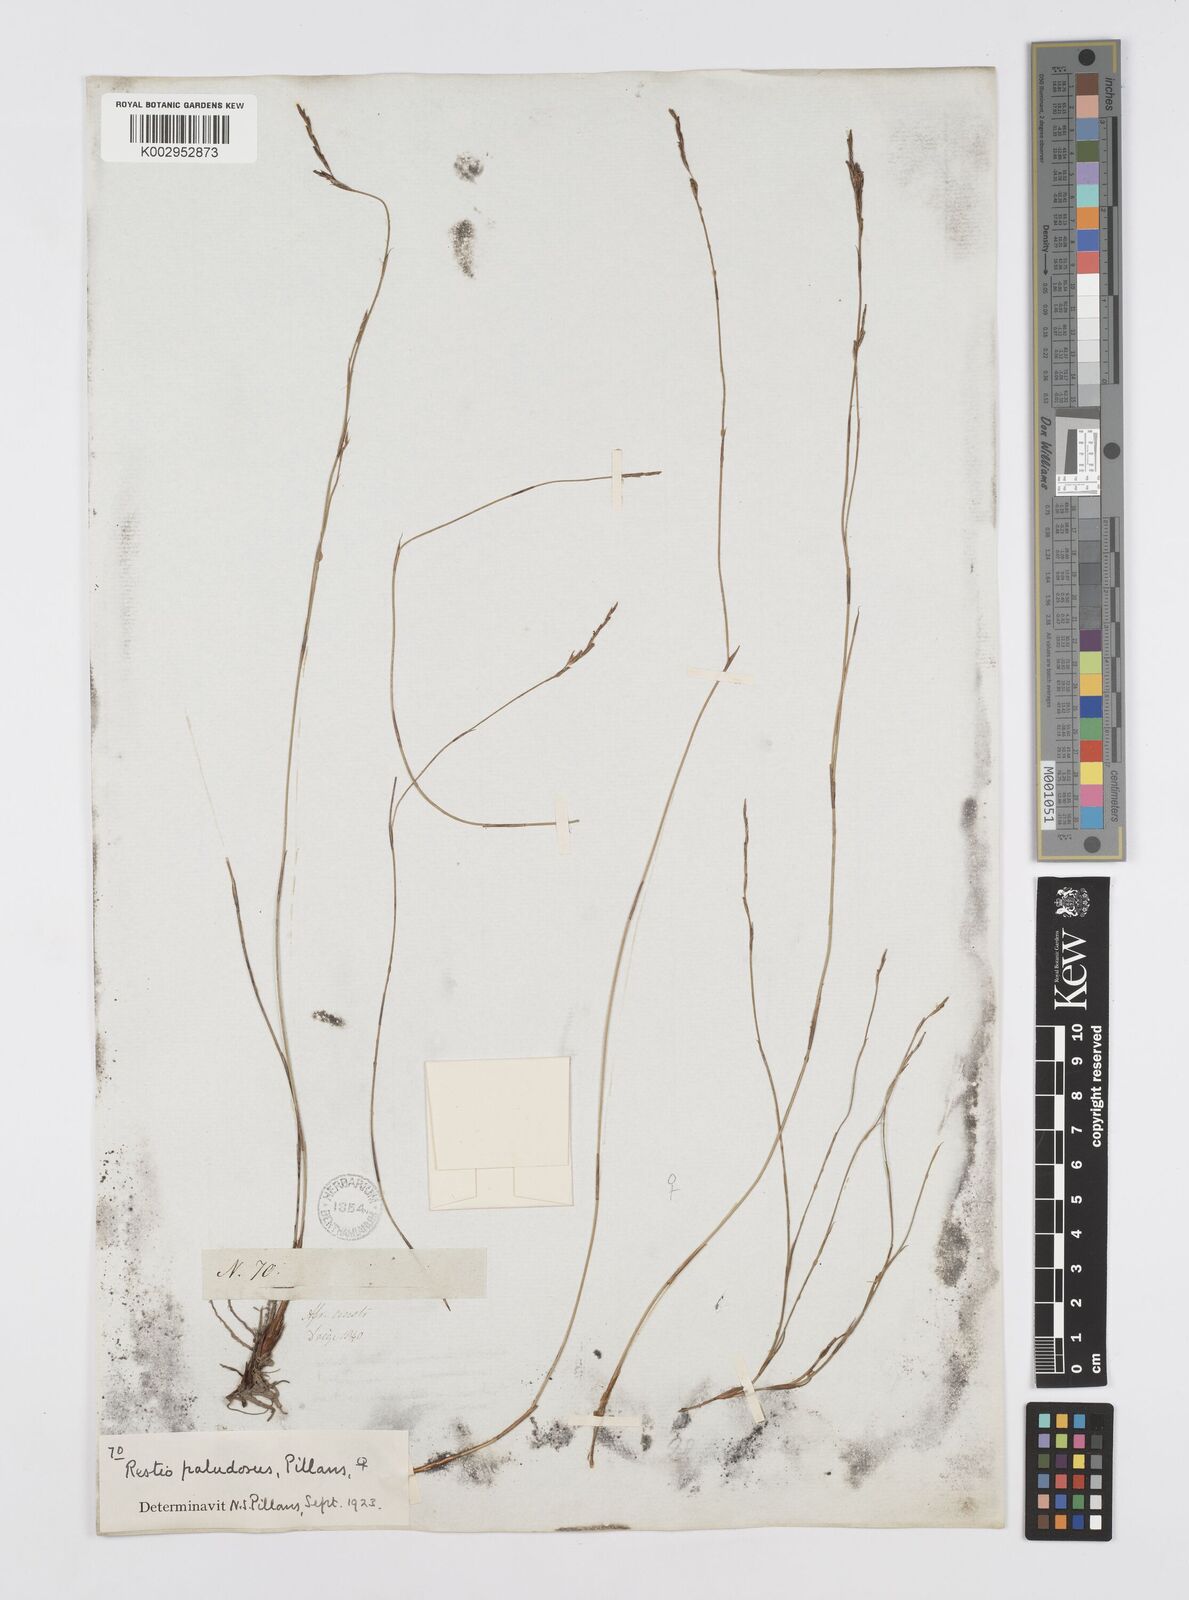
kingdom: Plantae
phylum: Tracheophyta
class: Liliopsida
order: Poales
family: Restionaceae
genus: Restio
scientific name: Restio paludosus
